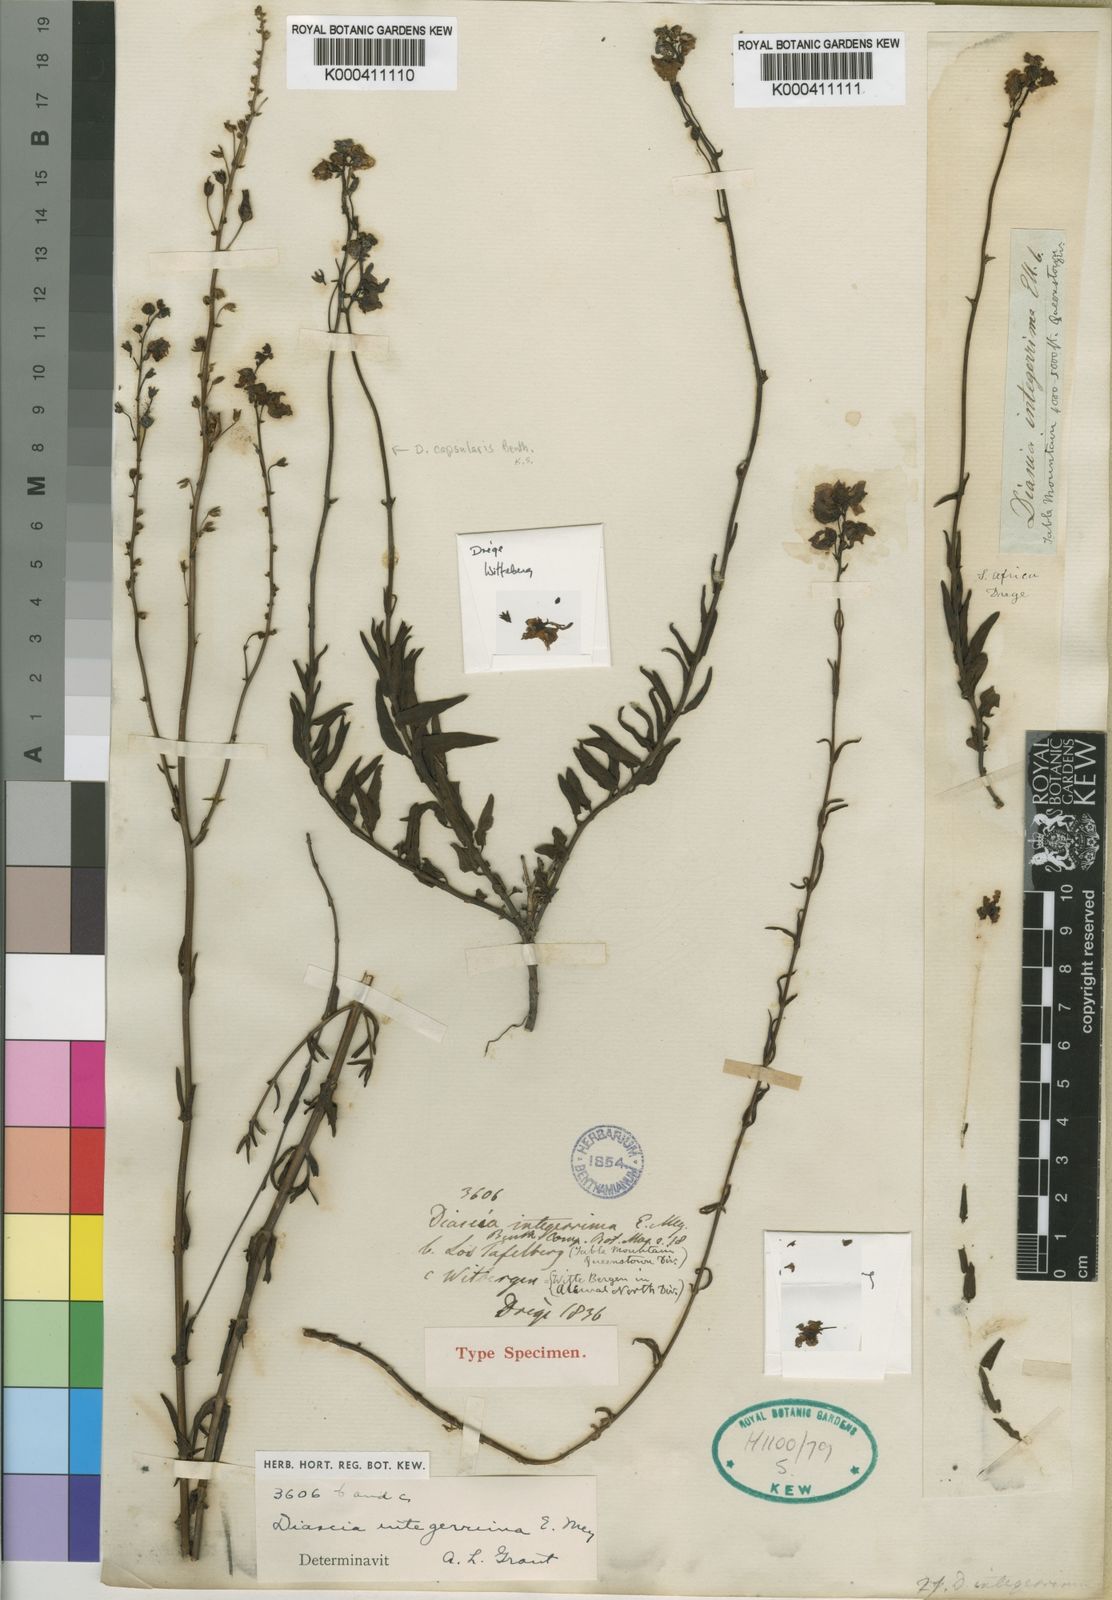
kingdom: Plantae
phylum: Tracheophyta
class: Magnoliopsida
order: Lamiales
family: Scrophulariaceae
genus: Diascia
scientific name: Diascia integerrima
